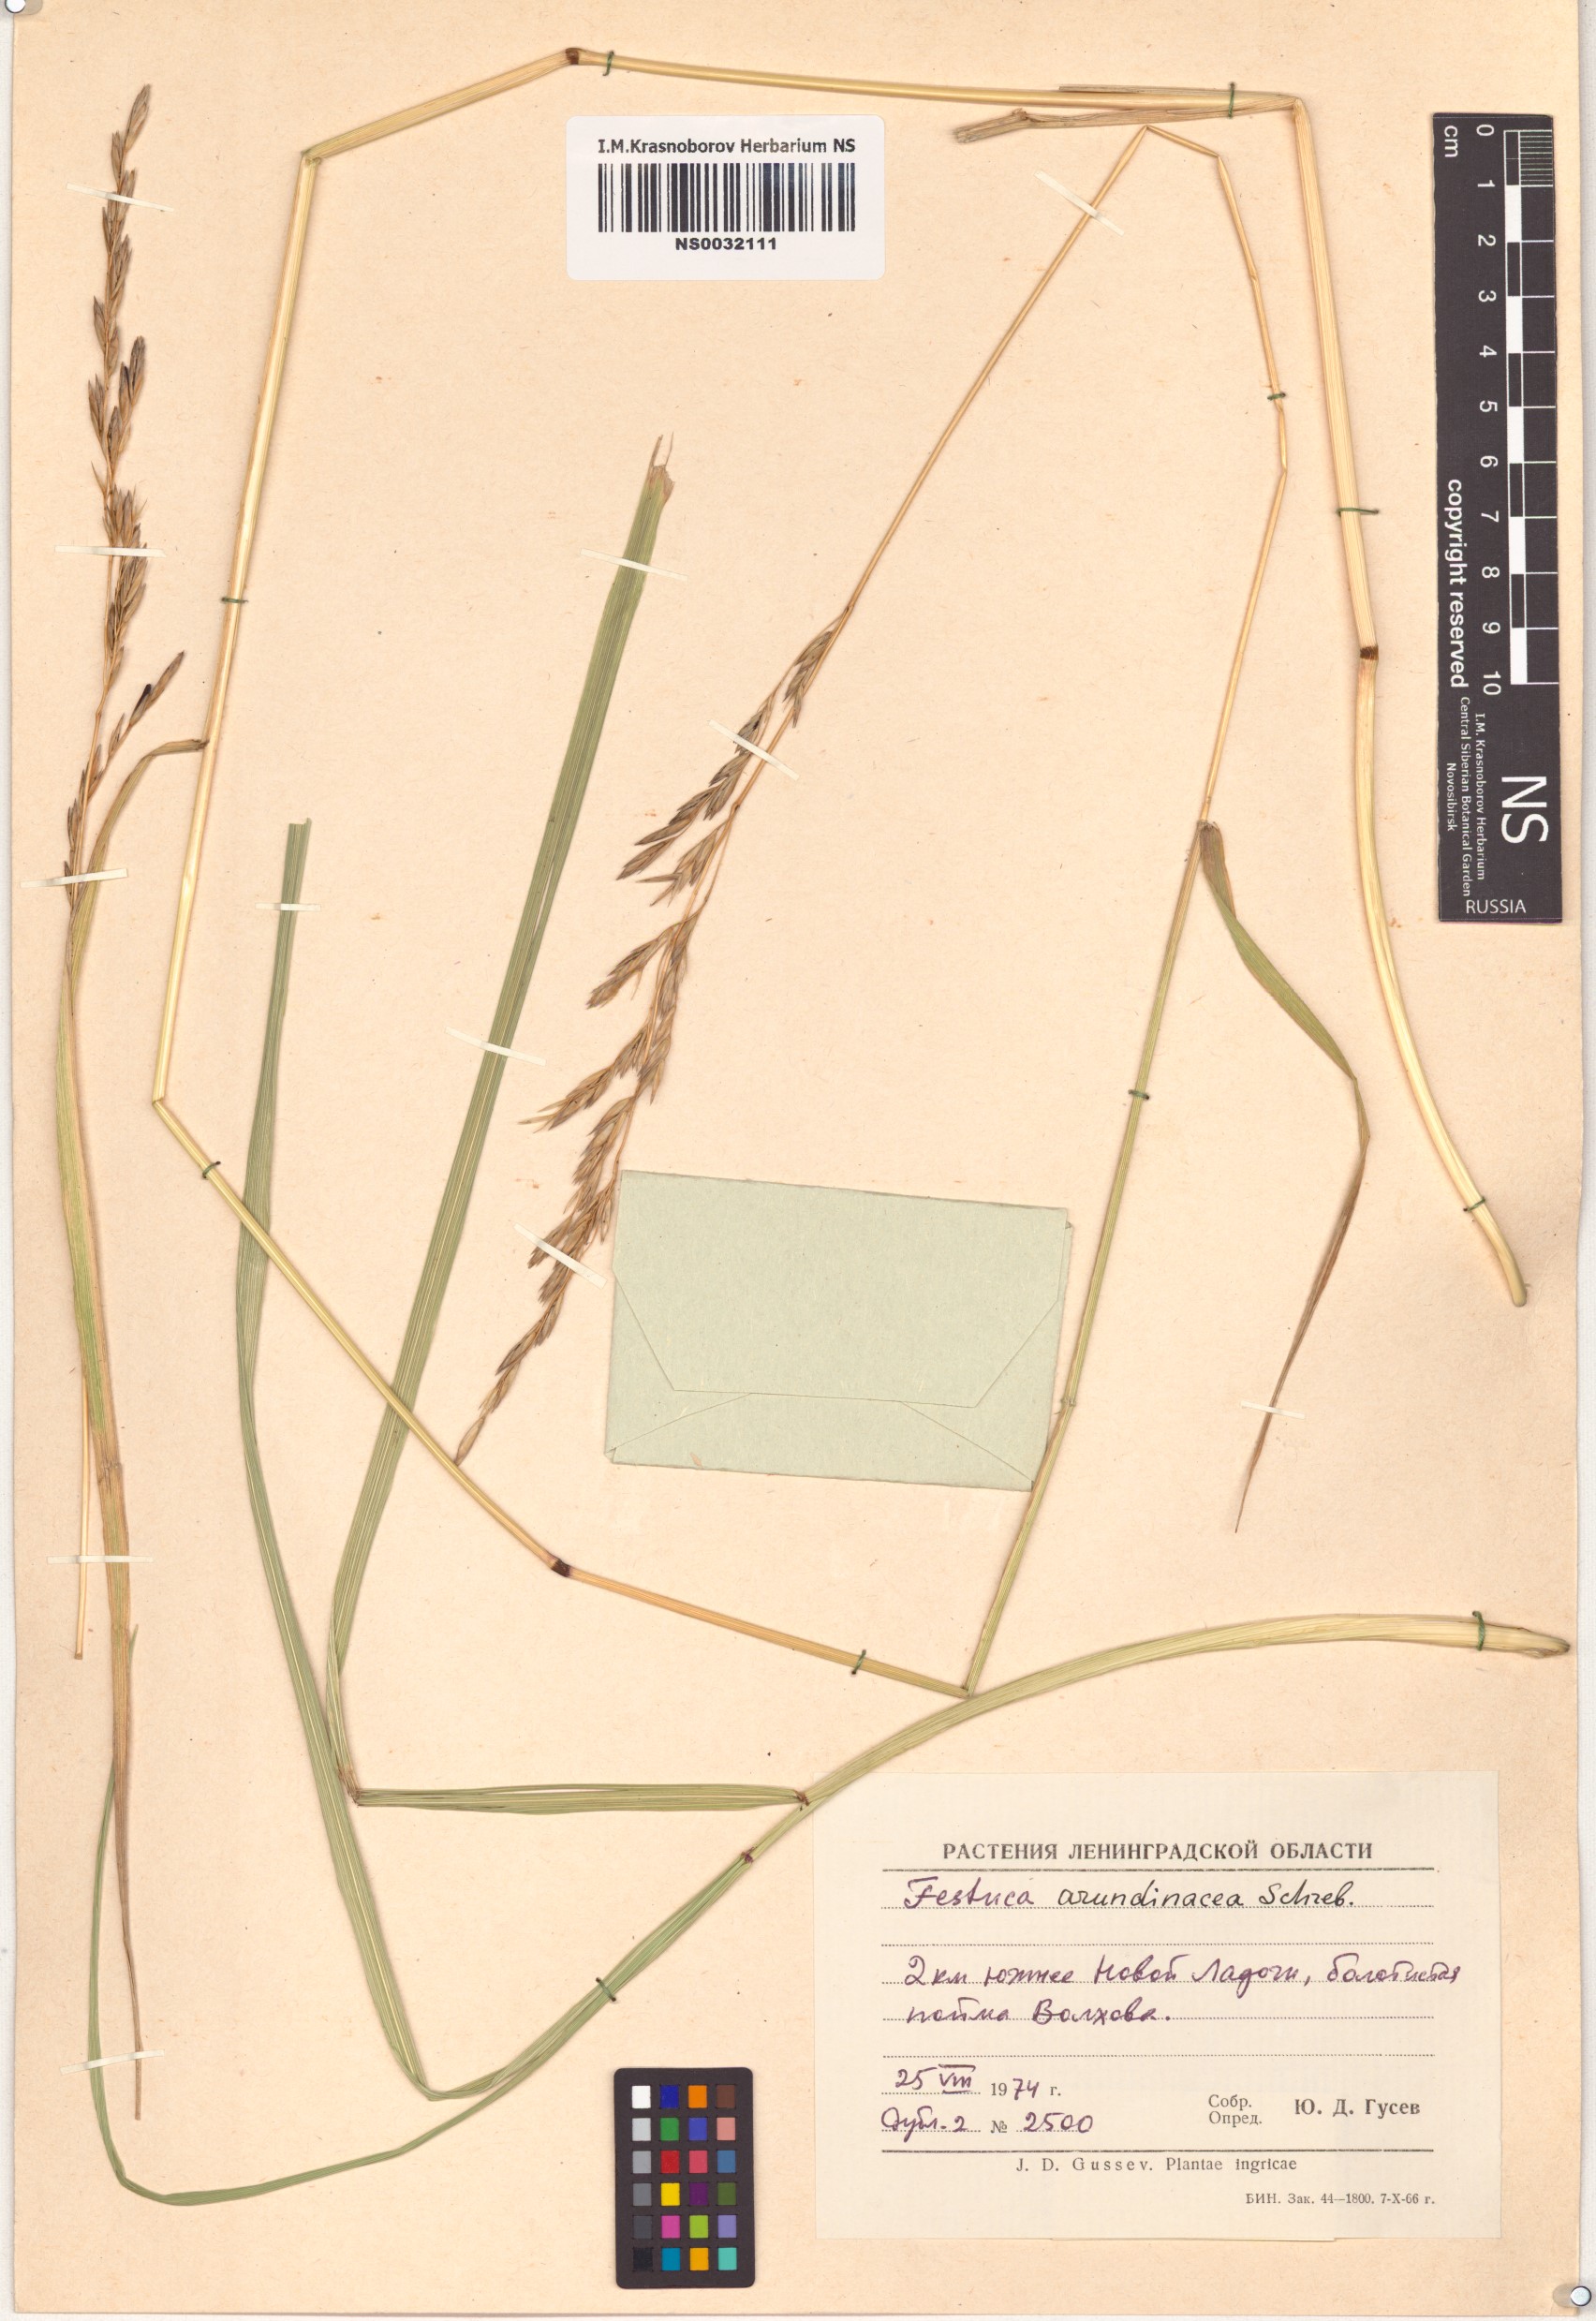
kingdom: Plantae
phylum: Tracheophyta
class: Liliopsida
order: Poales
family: Poaceae
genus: Lolium
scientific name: Lolium arundinaceum
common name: Reed fescue
